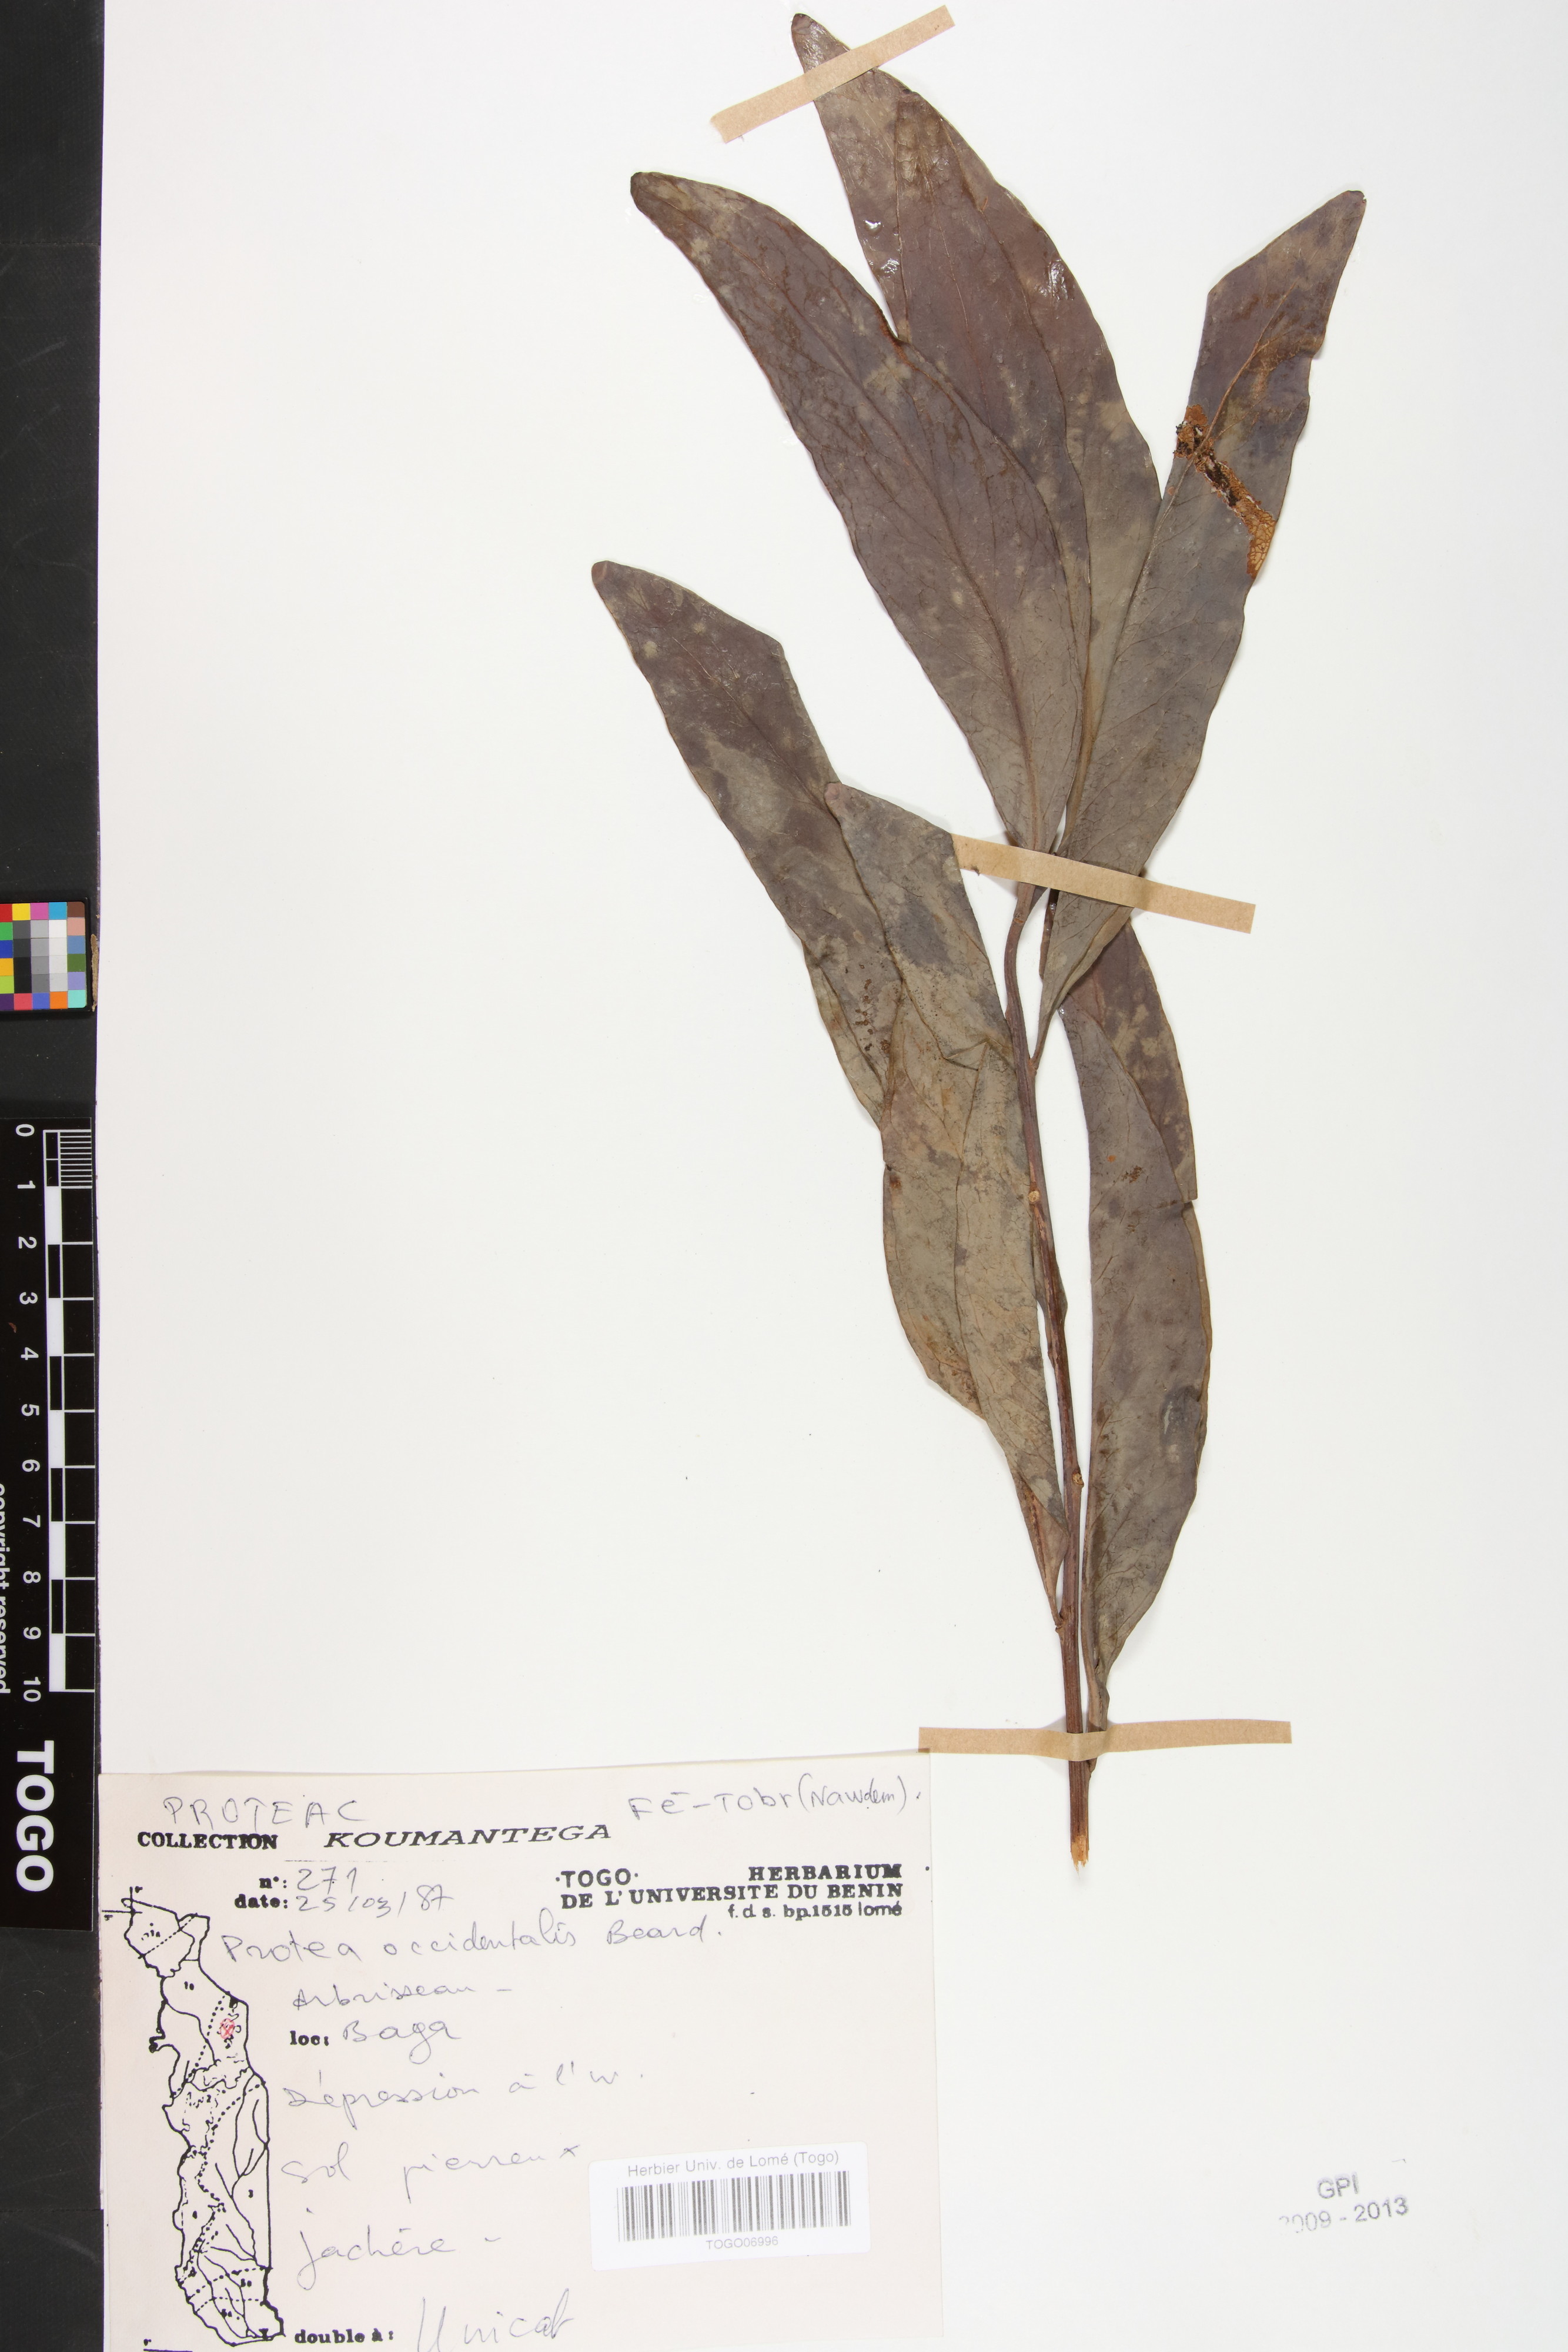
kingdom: Plantae
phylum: Tracheophyta
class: Magnoliopsida
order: Proteales
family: Proteaceae
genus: Protea
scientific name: Protea madiensis
